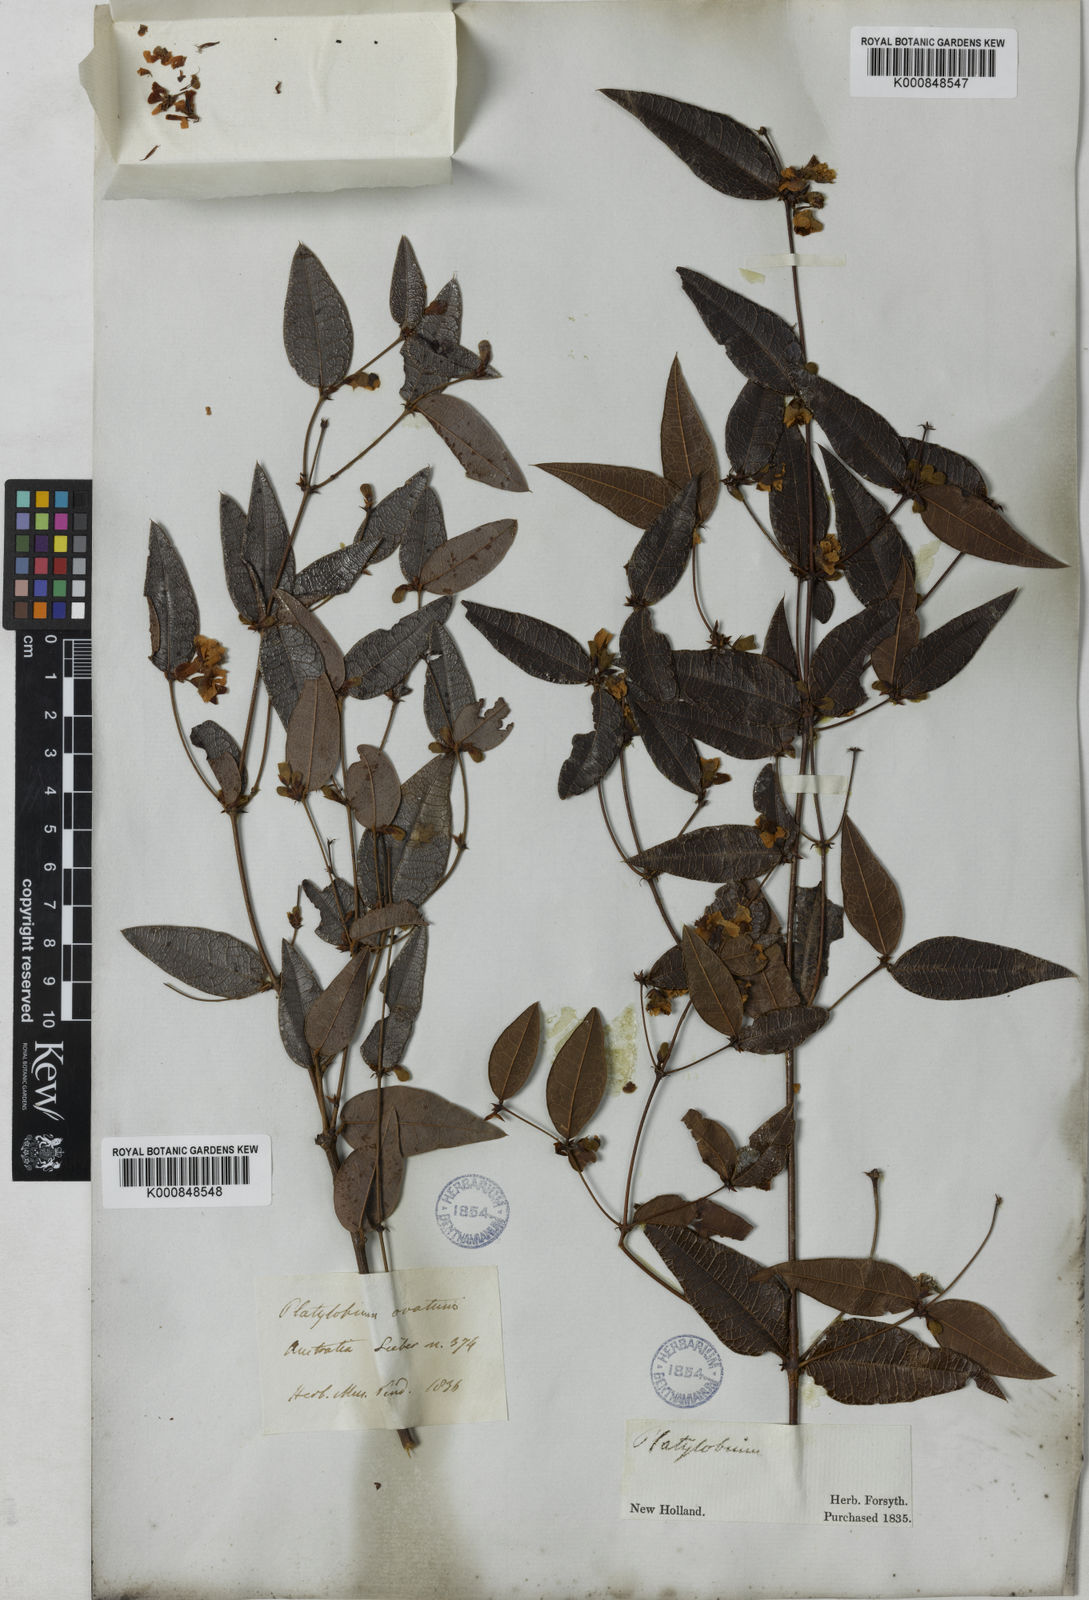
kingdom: Plantae
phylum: Tracheophyta
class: Magnoliopsida
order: Fabales
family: Fabaceae
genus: Platylobium
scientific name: Platylobium formosum
